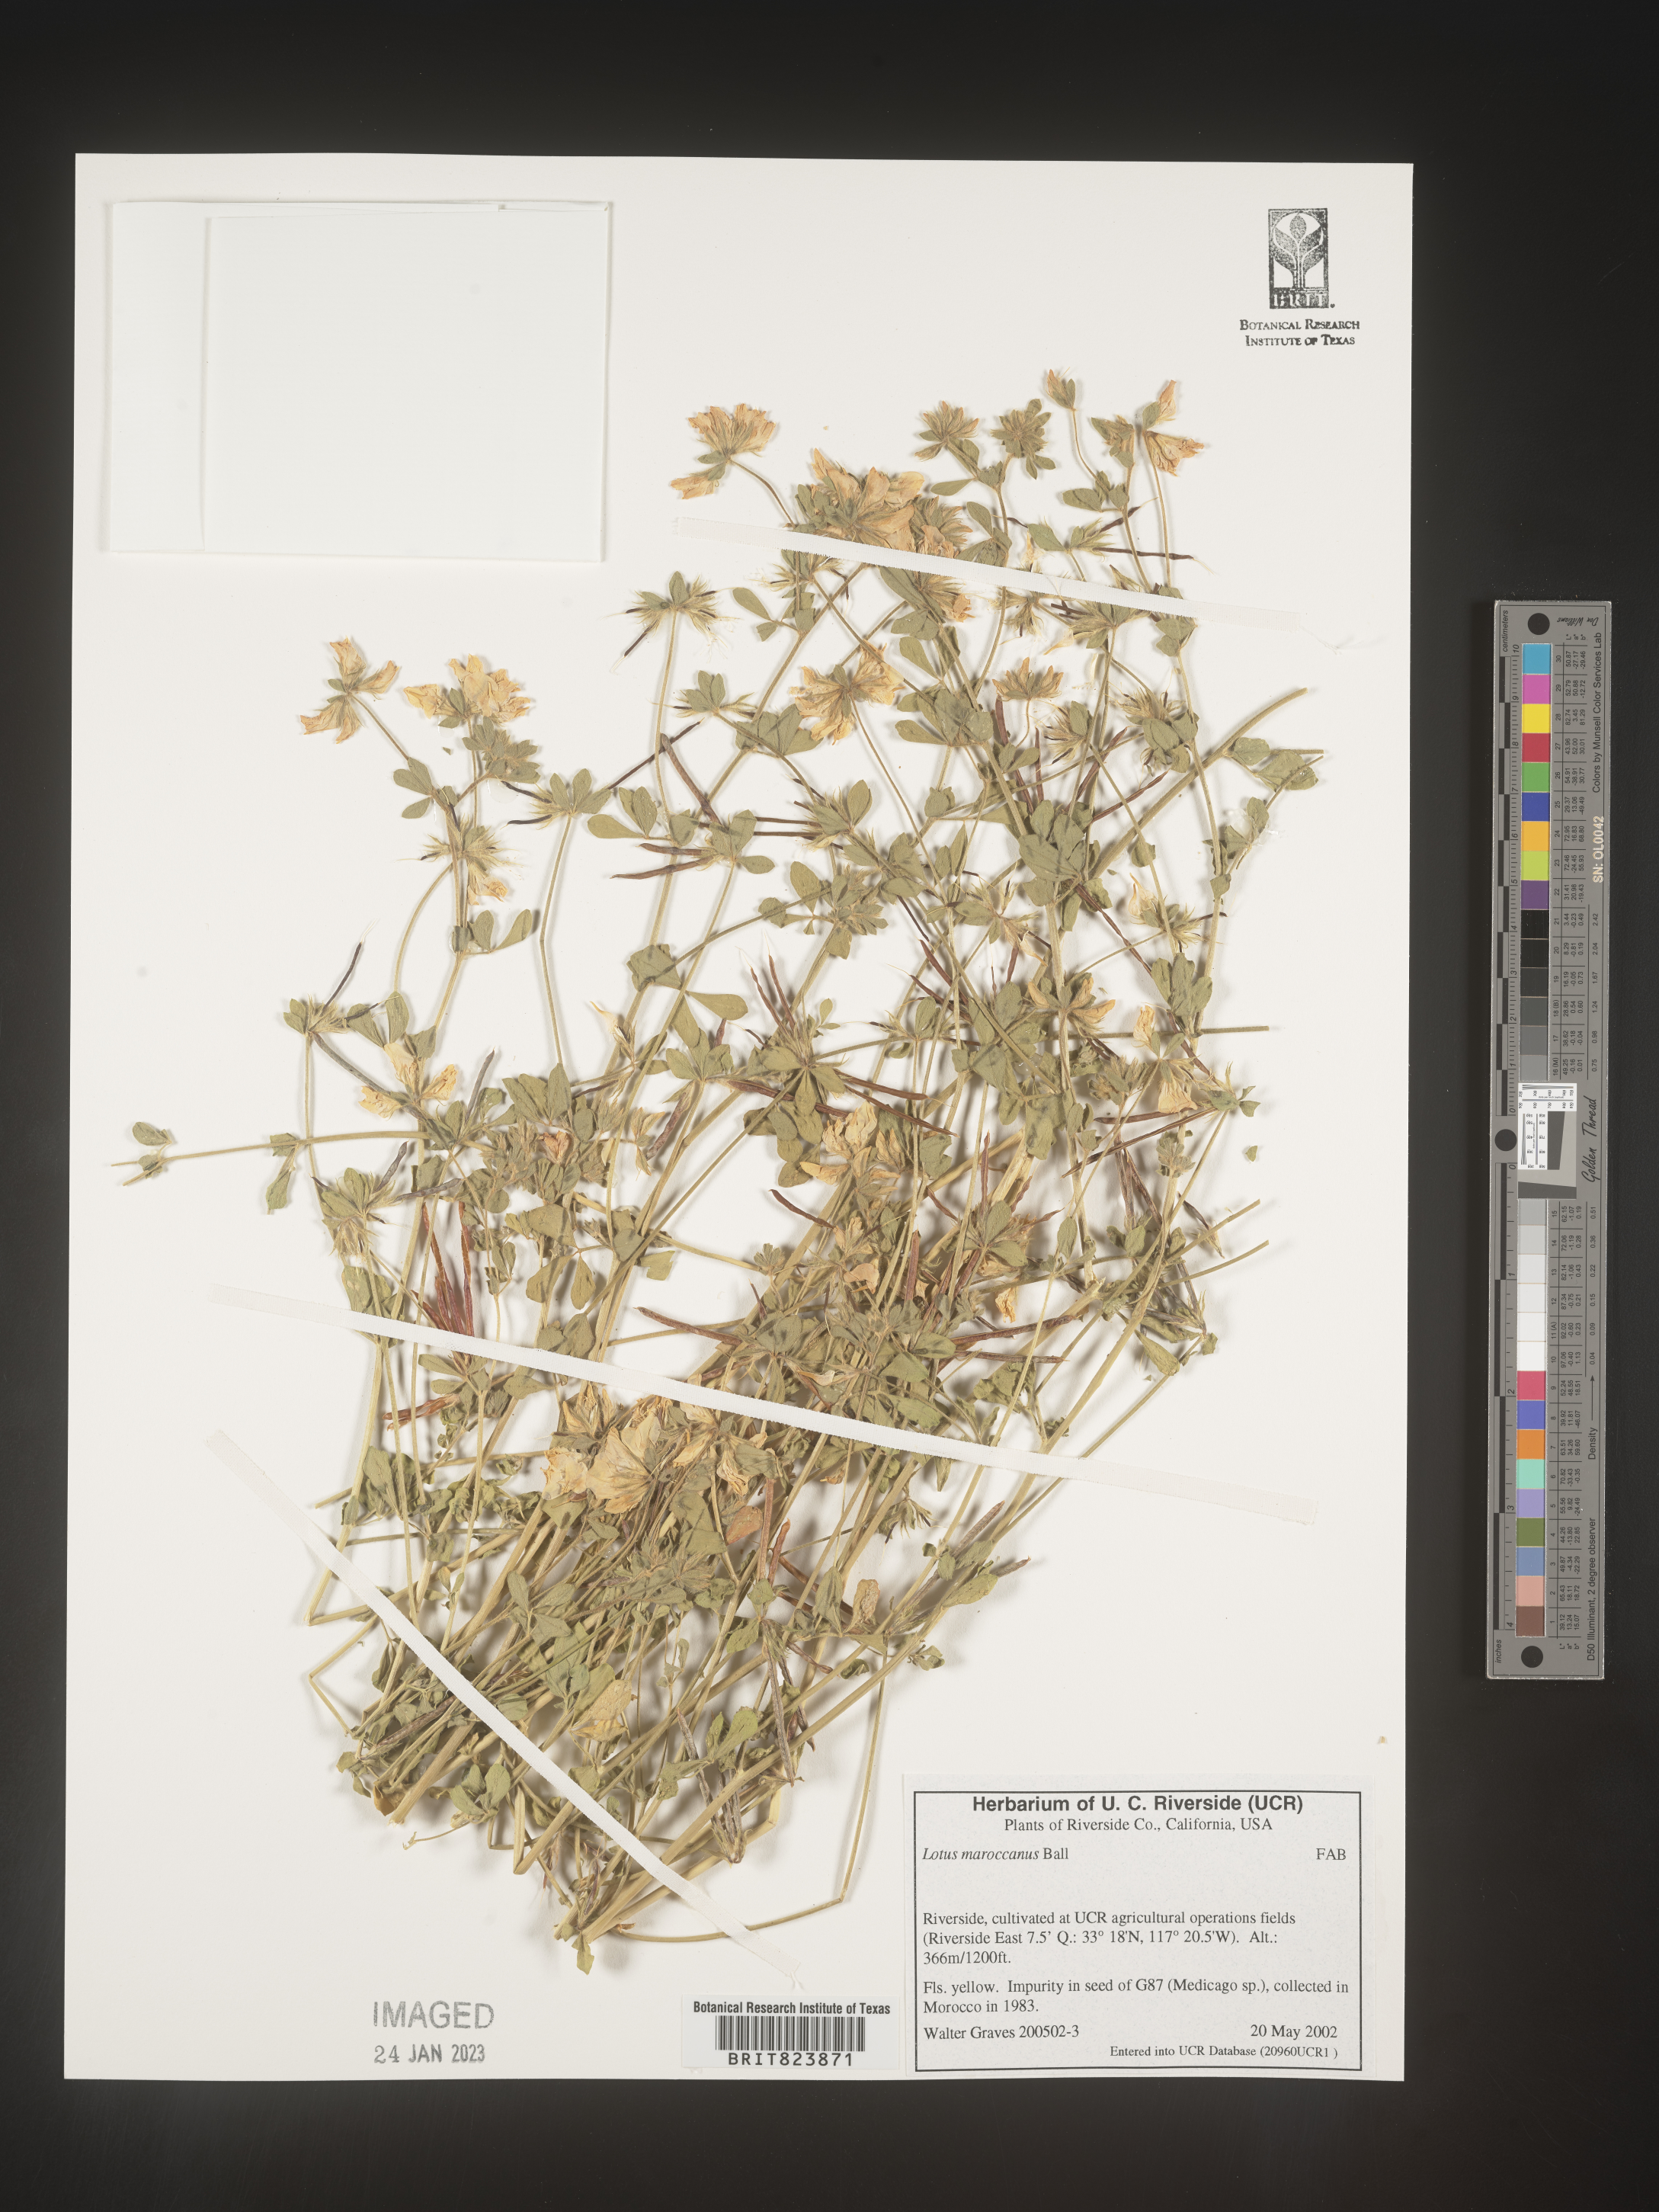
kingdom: Plantae
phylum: Tracheophyta
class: Magnoliopsida
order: Fabales
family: Fabaceae
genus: Lotus
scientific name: Lotus
